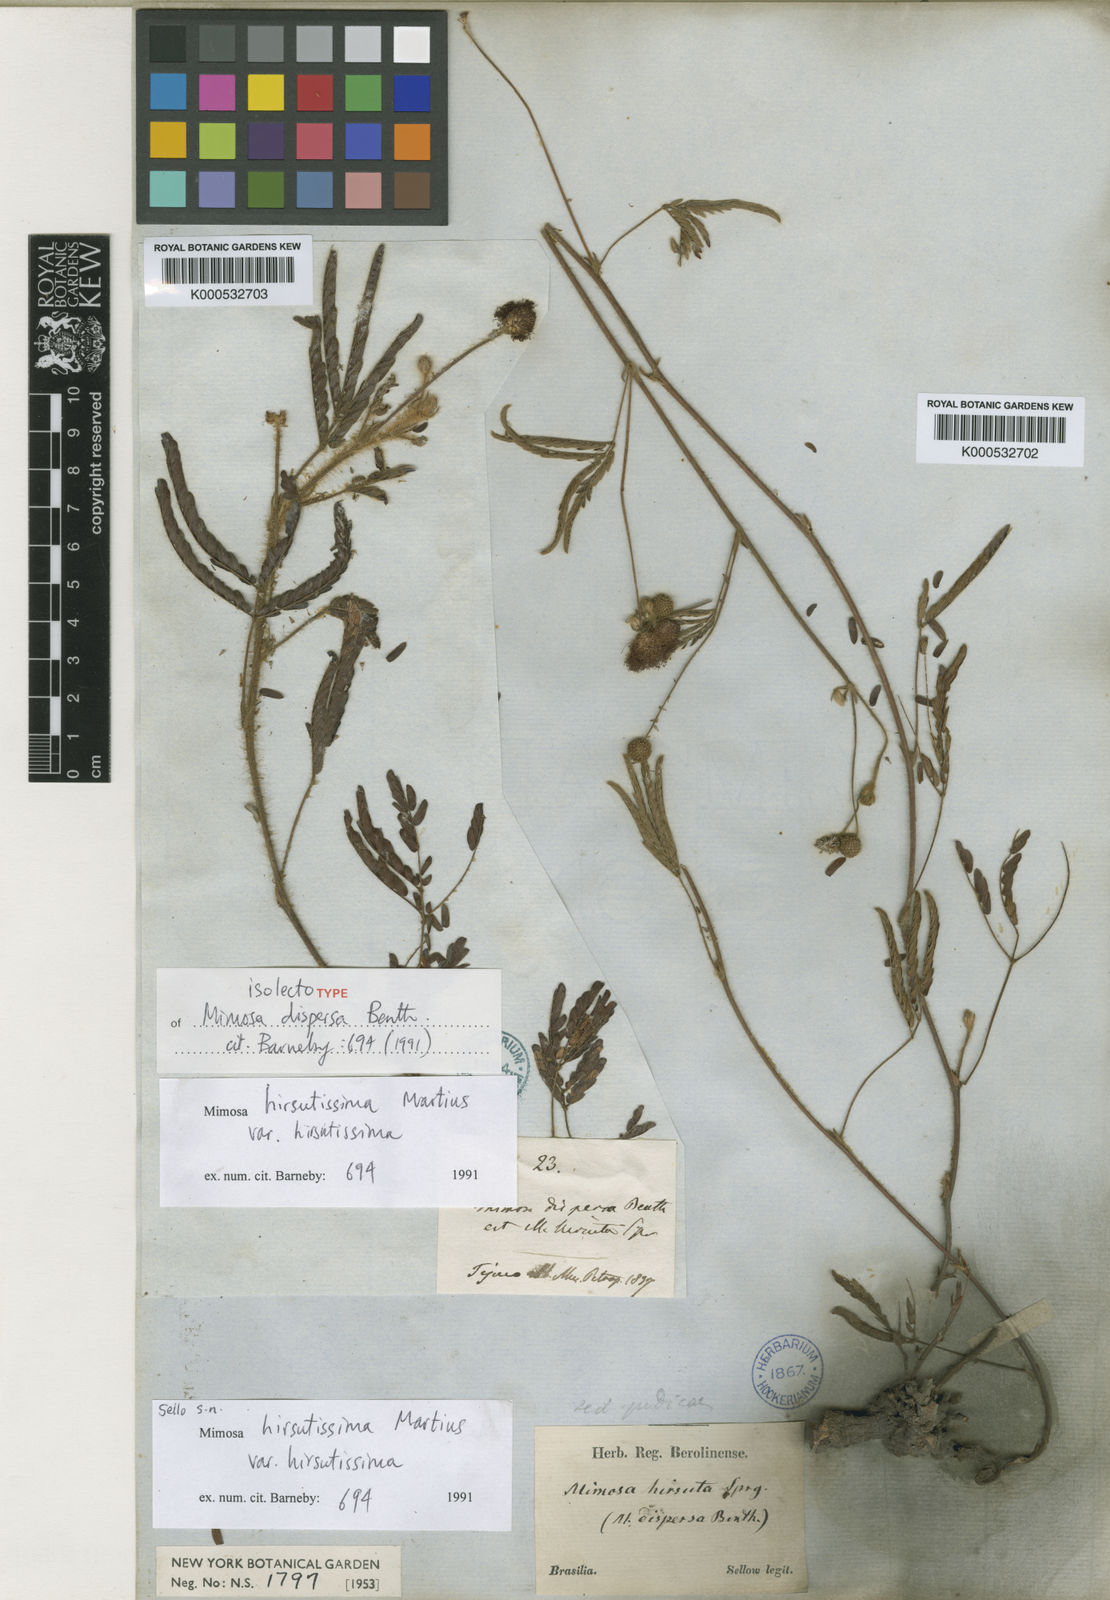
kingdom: Plantae
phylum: Tracheophyta
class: Magnoliopsida
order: Fabales
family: Fabaceae
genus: Mimosa
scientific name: Mimosa hirsutissima
